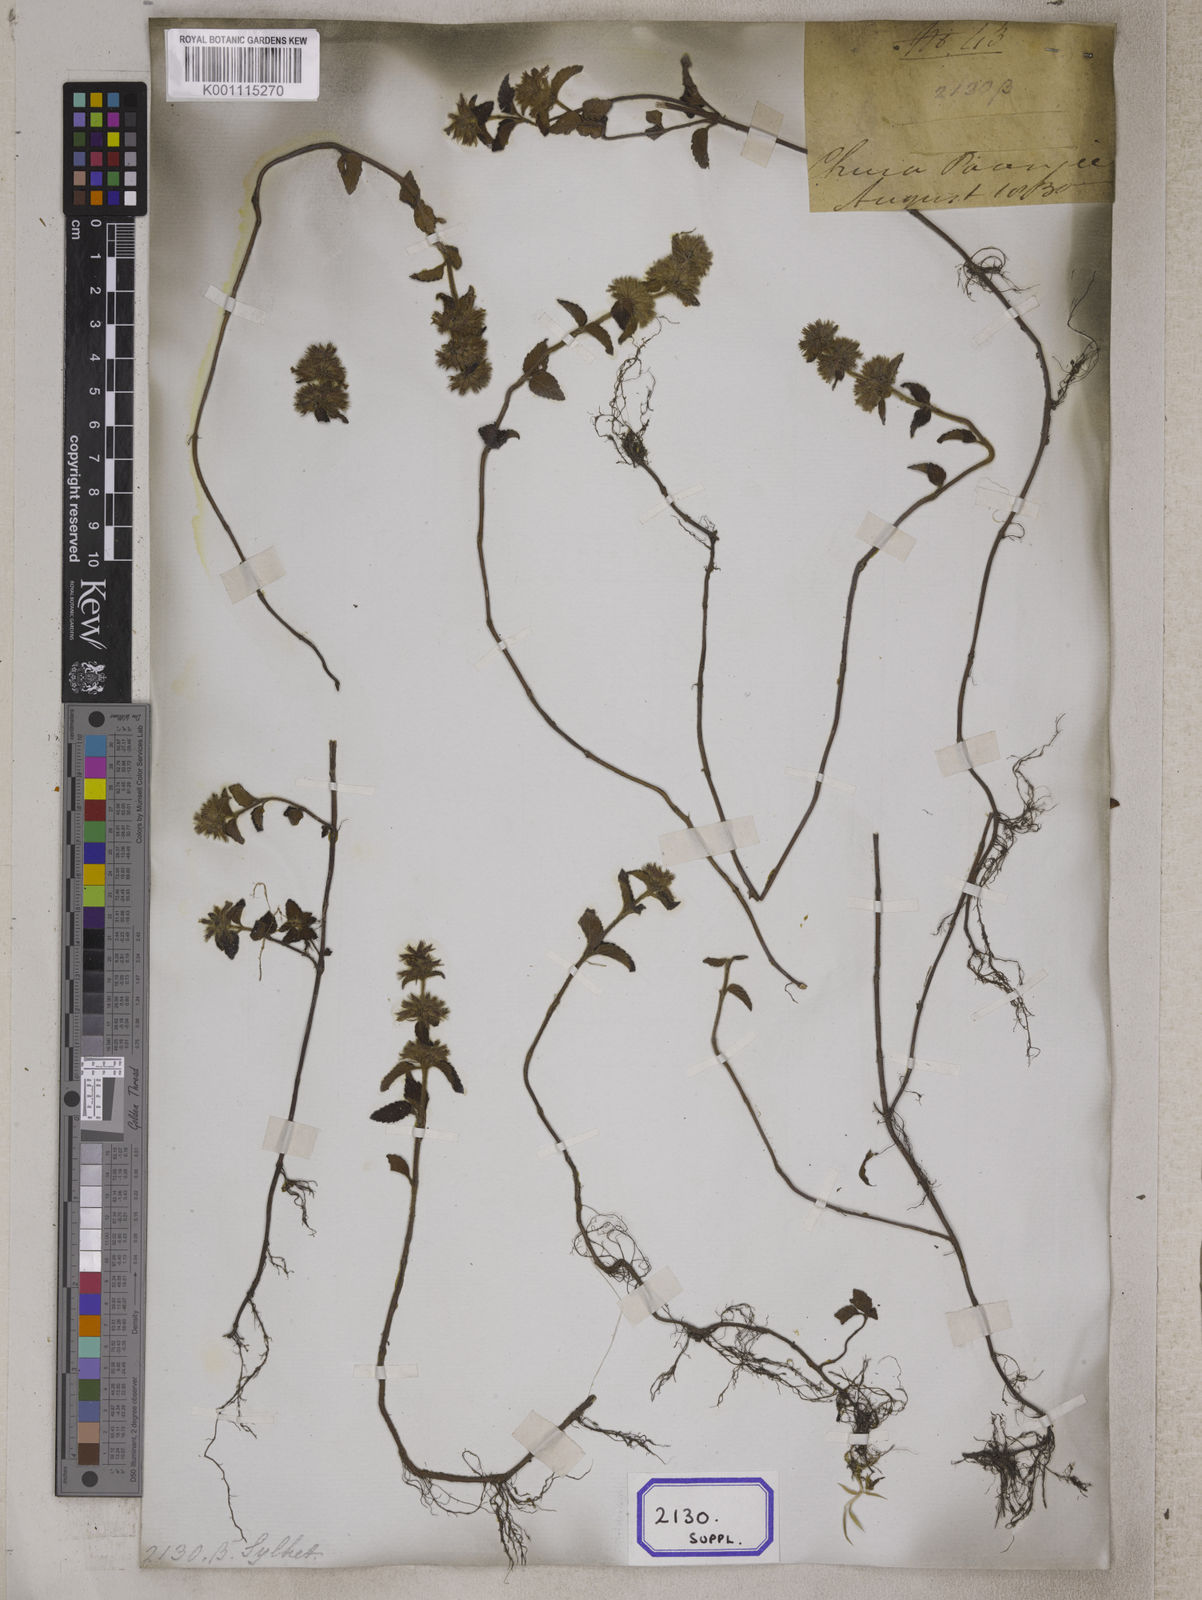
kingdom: Plantae
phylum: Tracheophyta
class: Magnoliopsida
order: Lamiales
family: Lamiaceae
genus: Clinopodium
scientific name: Clinopodium
